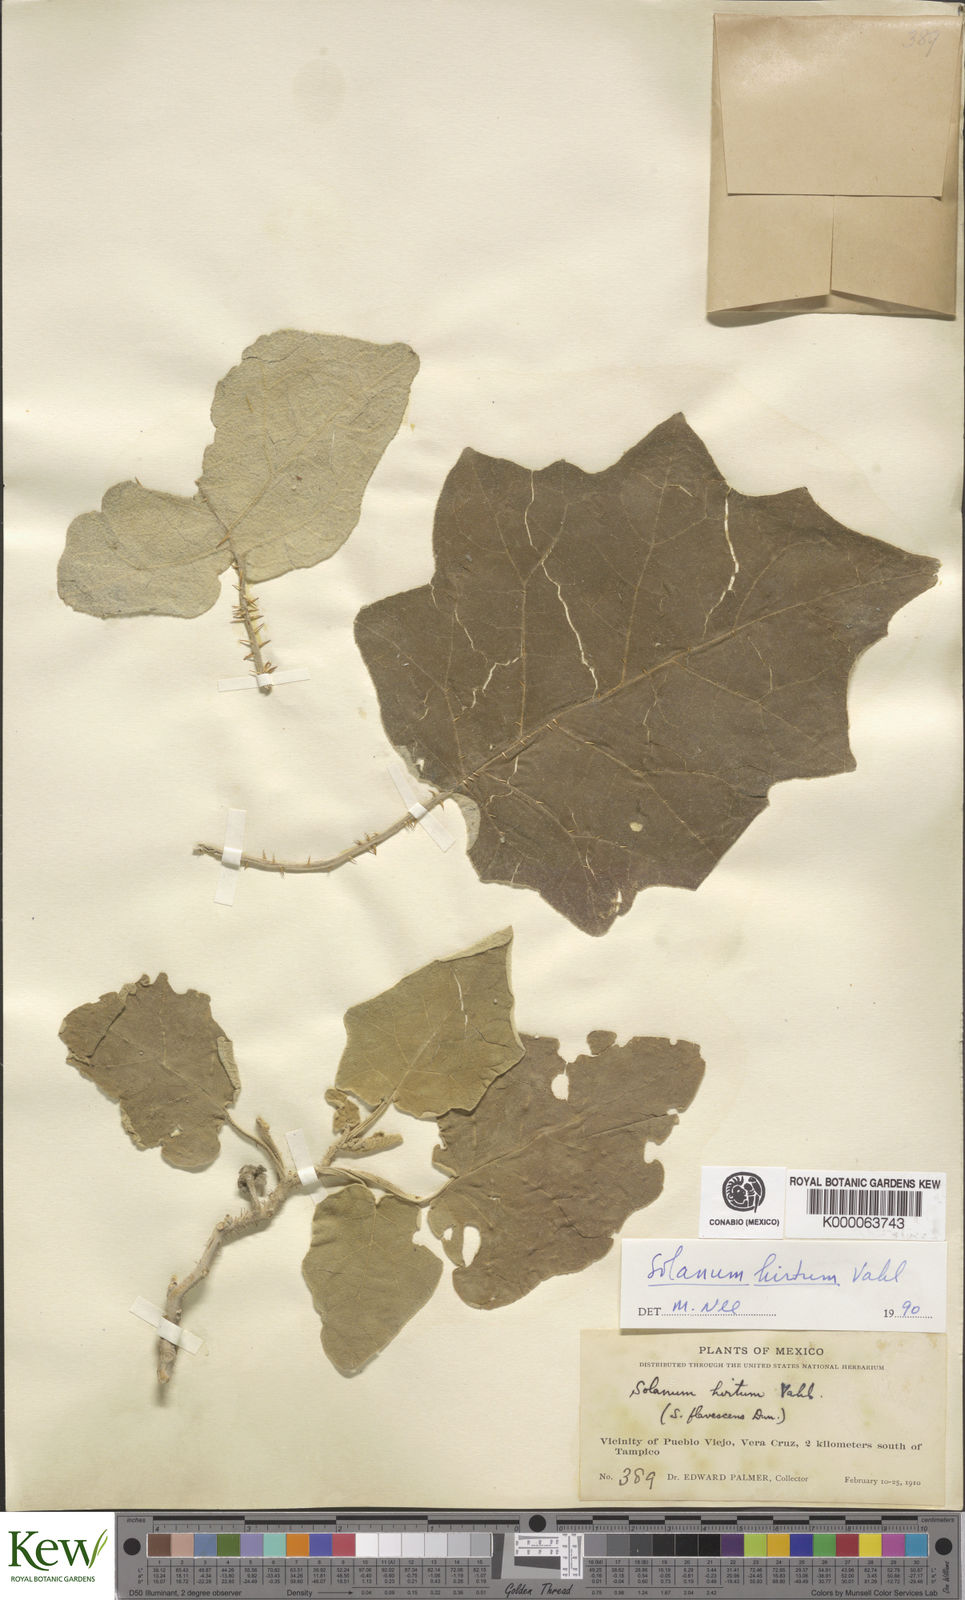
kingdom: Plantae
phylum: Tracheophyta
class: Magnoliopsida
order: Solanales
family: Solanaceae
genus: Solanum
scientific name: Solanum hirtum
